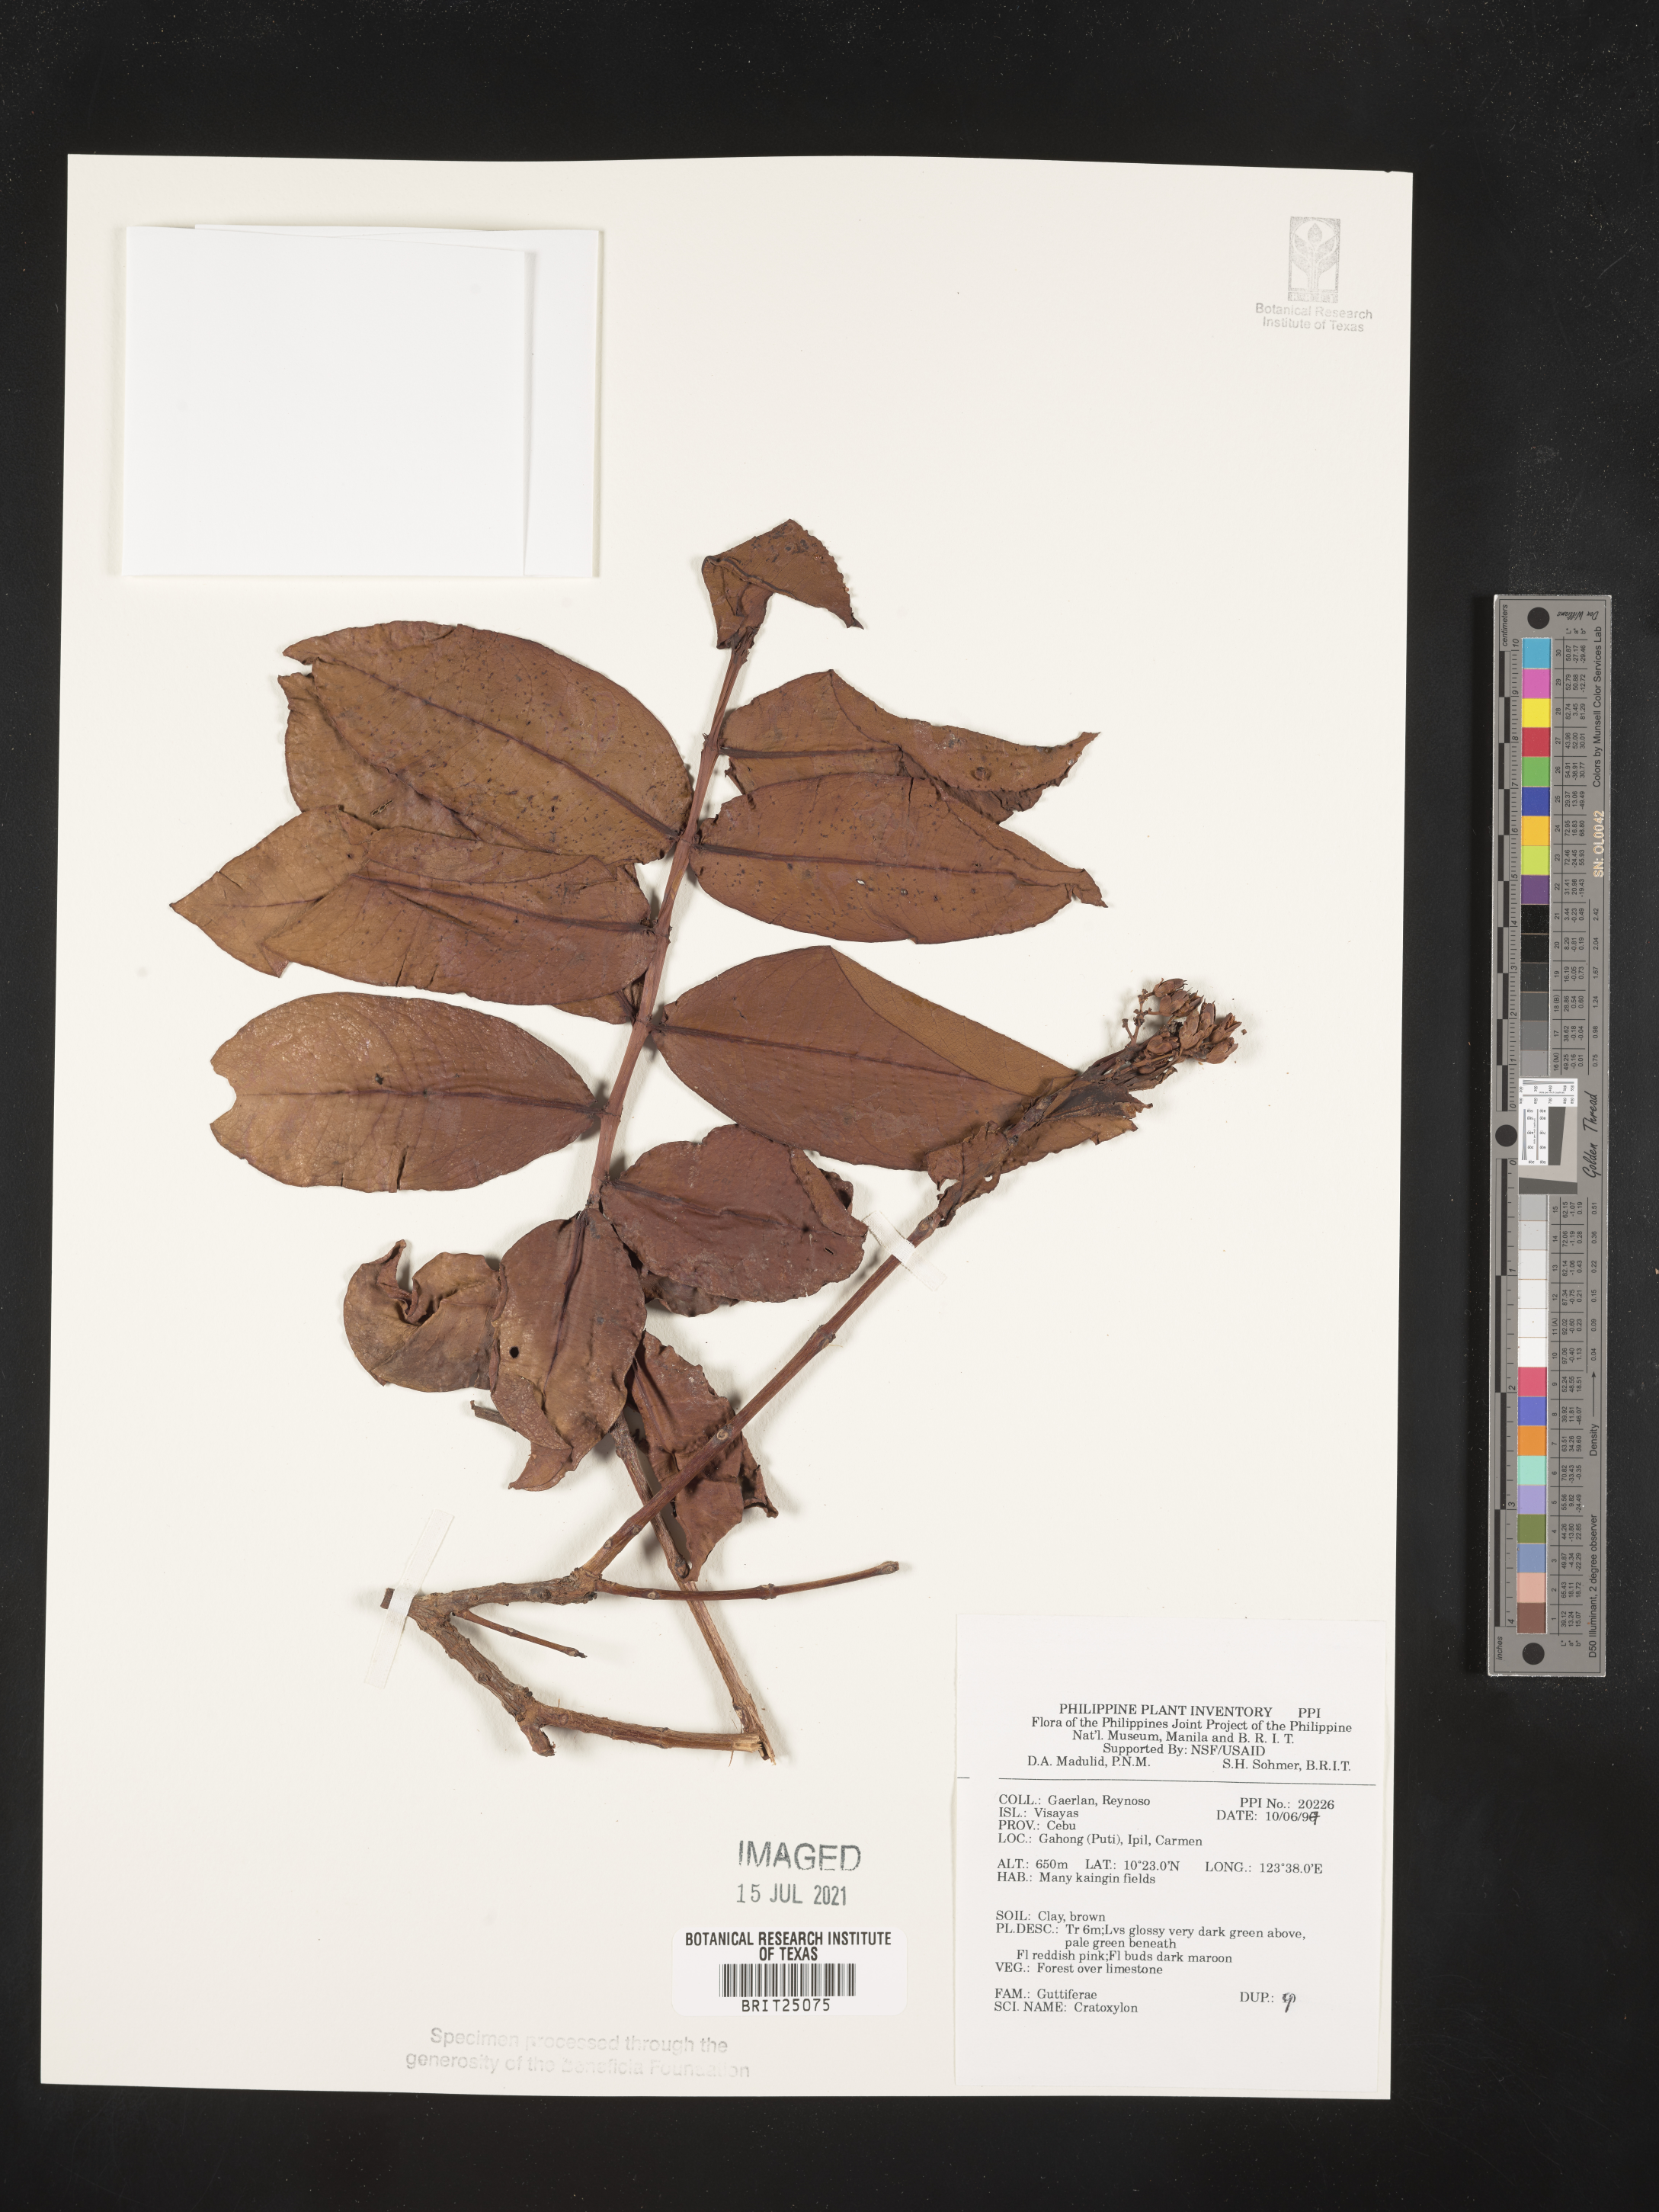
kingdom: Plantae
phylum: Tracheophyta
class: Magnoliopsida
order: Malpighiales
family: Hypericaceae
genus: Cratoxylum
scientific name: Cratoxylum
